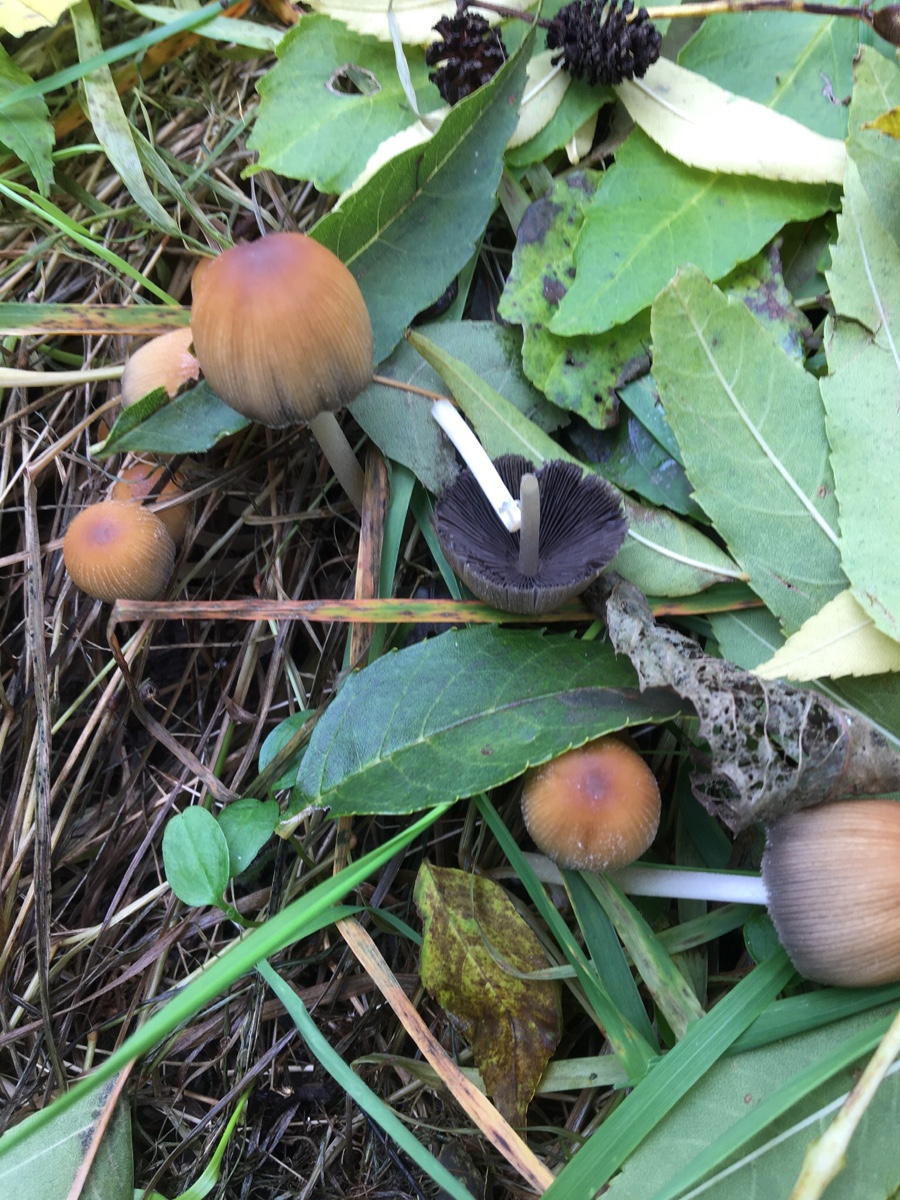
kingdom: Fungi
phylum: Basidiomycota
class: Agaricomycetes
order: Agaricales
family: Psathyrellaceae
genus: Coprinellus
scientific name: Coprinellus micaceus
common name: glimmer-blækhat
